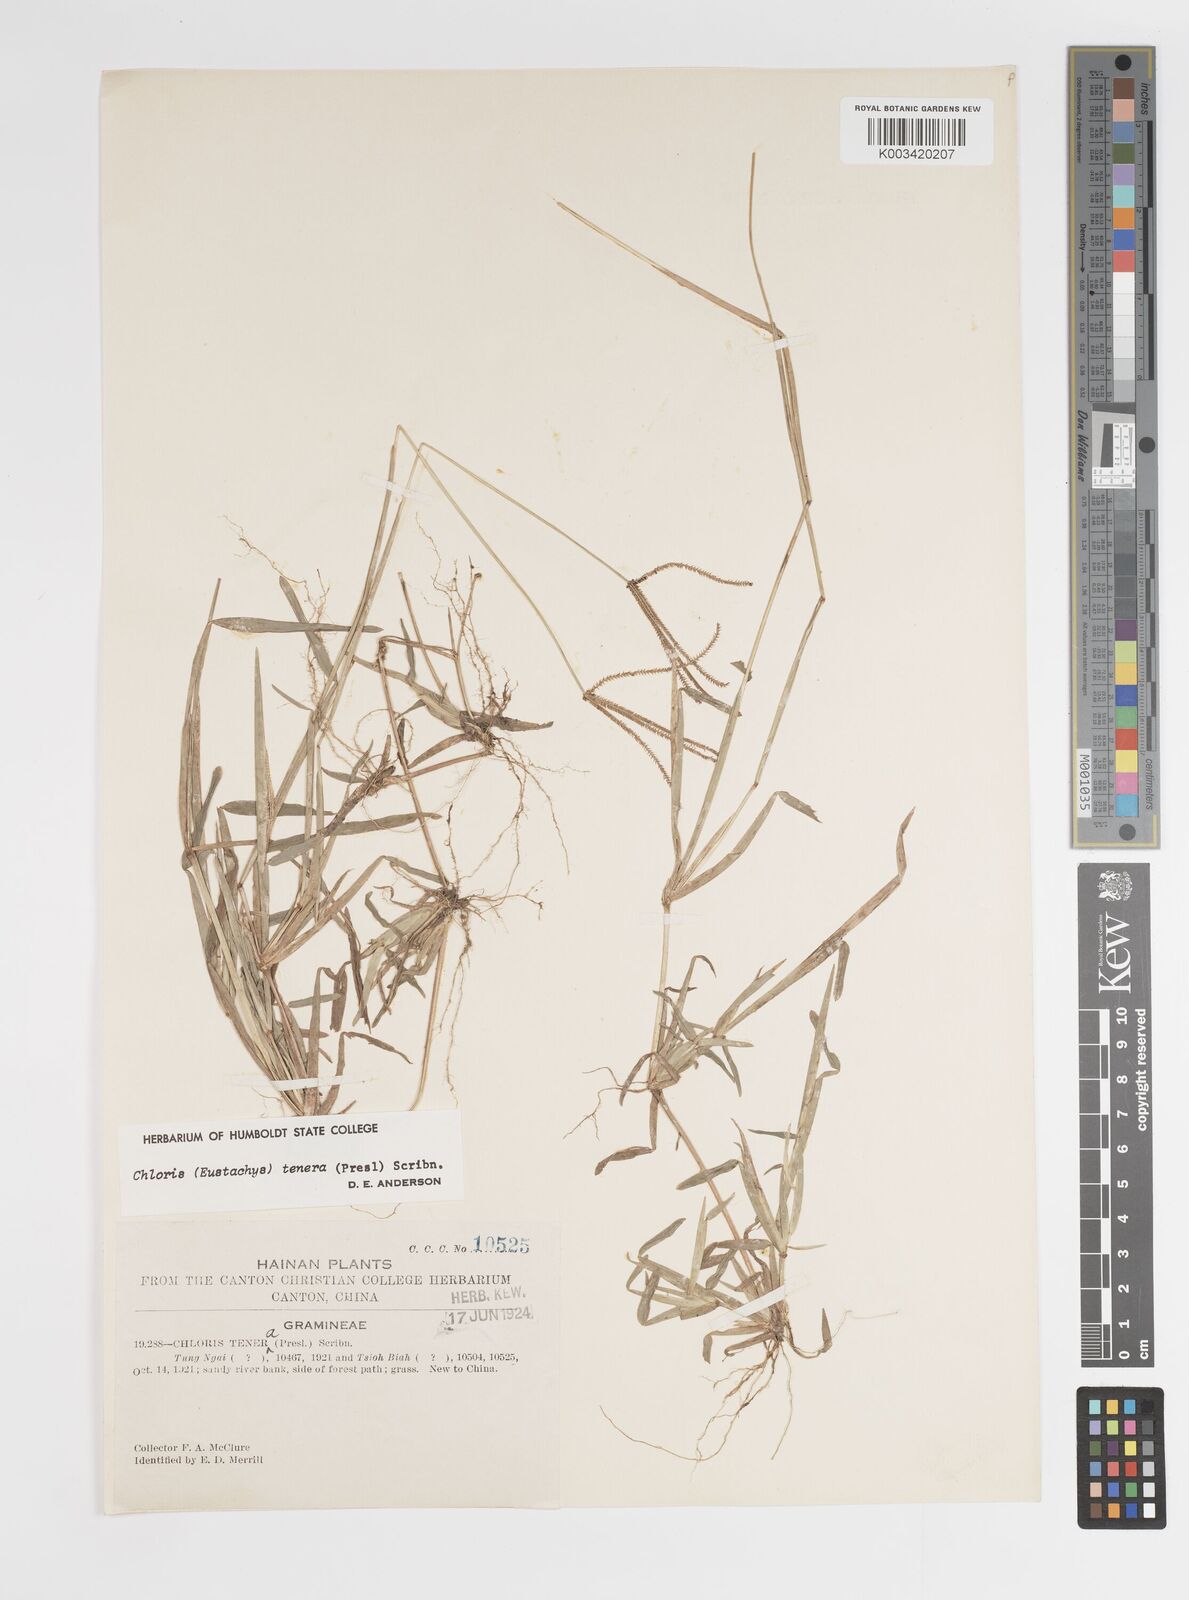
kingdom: Plantae
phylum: Tracheophyta
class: Liliopsida
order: Poales
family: Poaceae
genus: Eustachys
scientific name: Eustachys tenera
